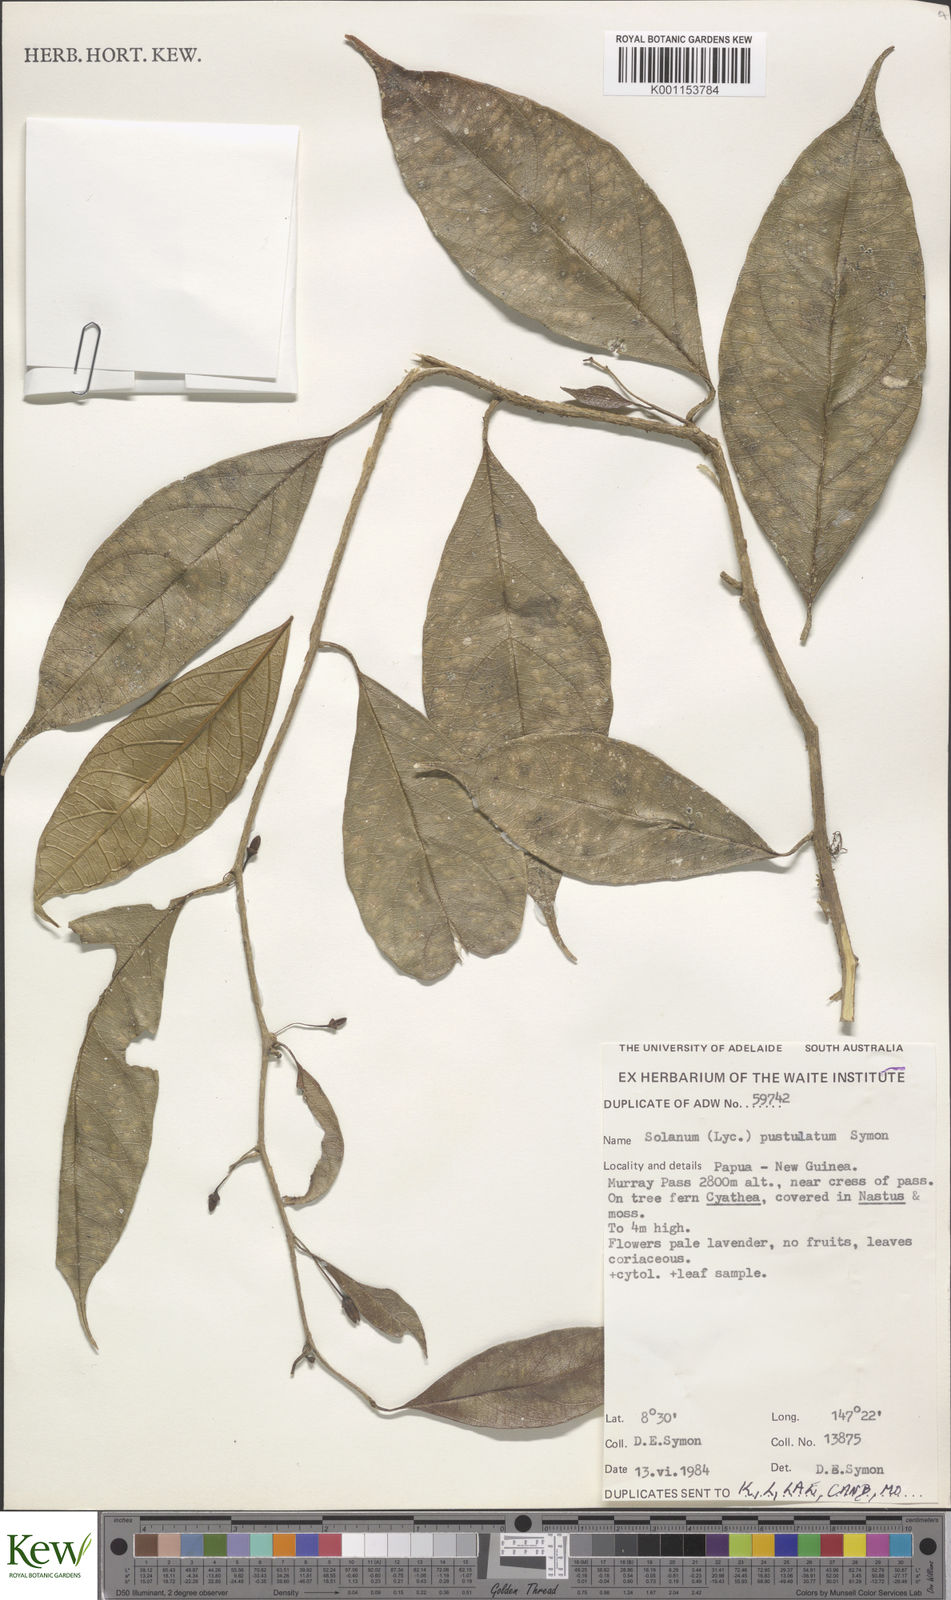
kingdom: Plantae
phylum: Tracheophyta
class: Magnoliopsida
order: Solanales
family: Solanaceae
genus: Lycianthes
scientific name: Lycianthes rostellata
